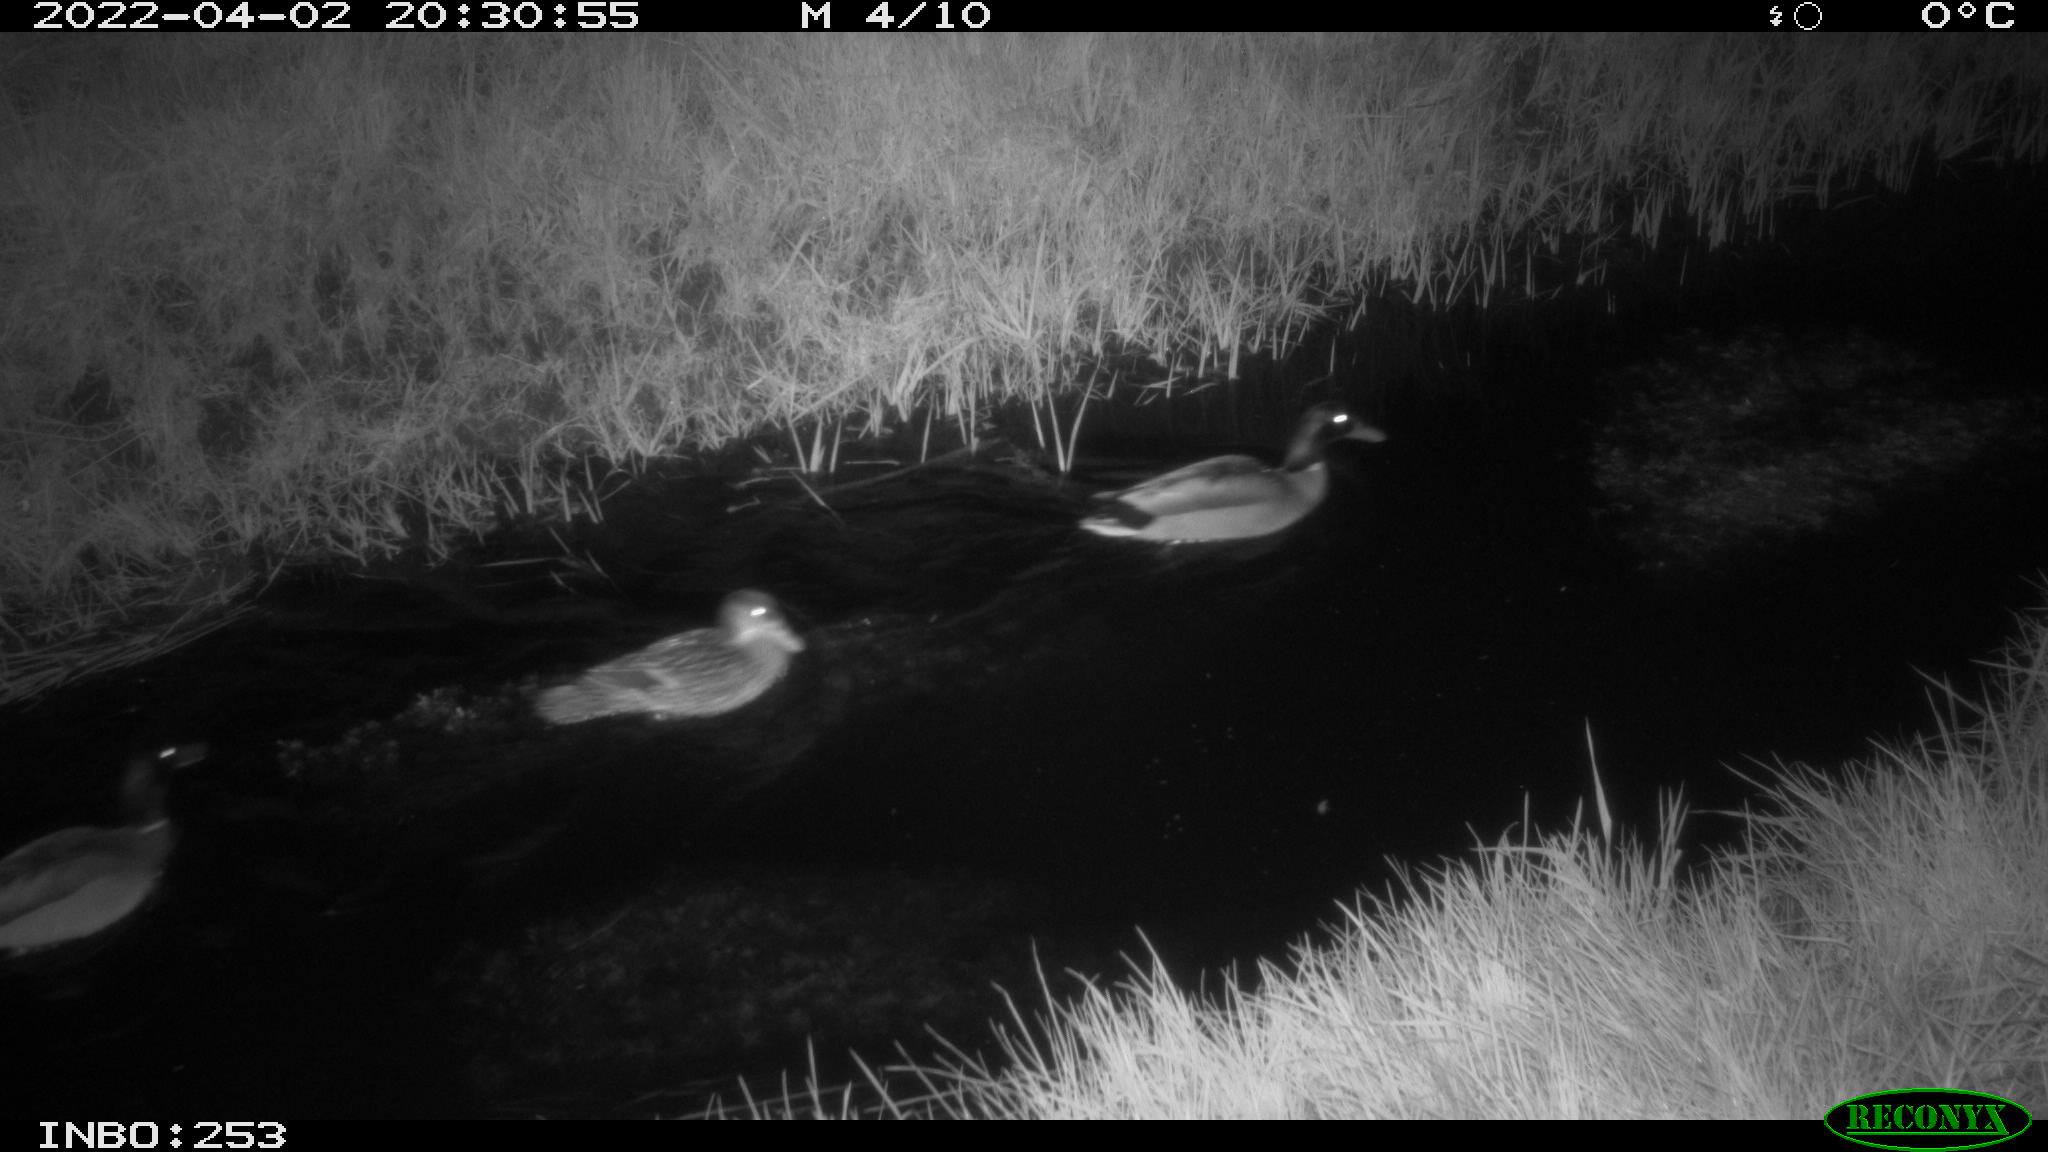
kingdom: Animalia
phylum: Chordata
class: Aves
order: Anseriformes
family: Anatidae
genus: Anas
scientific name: Anas platyrhynchos
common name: Mallard
